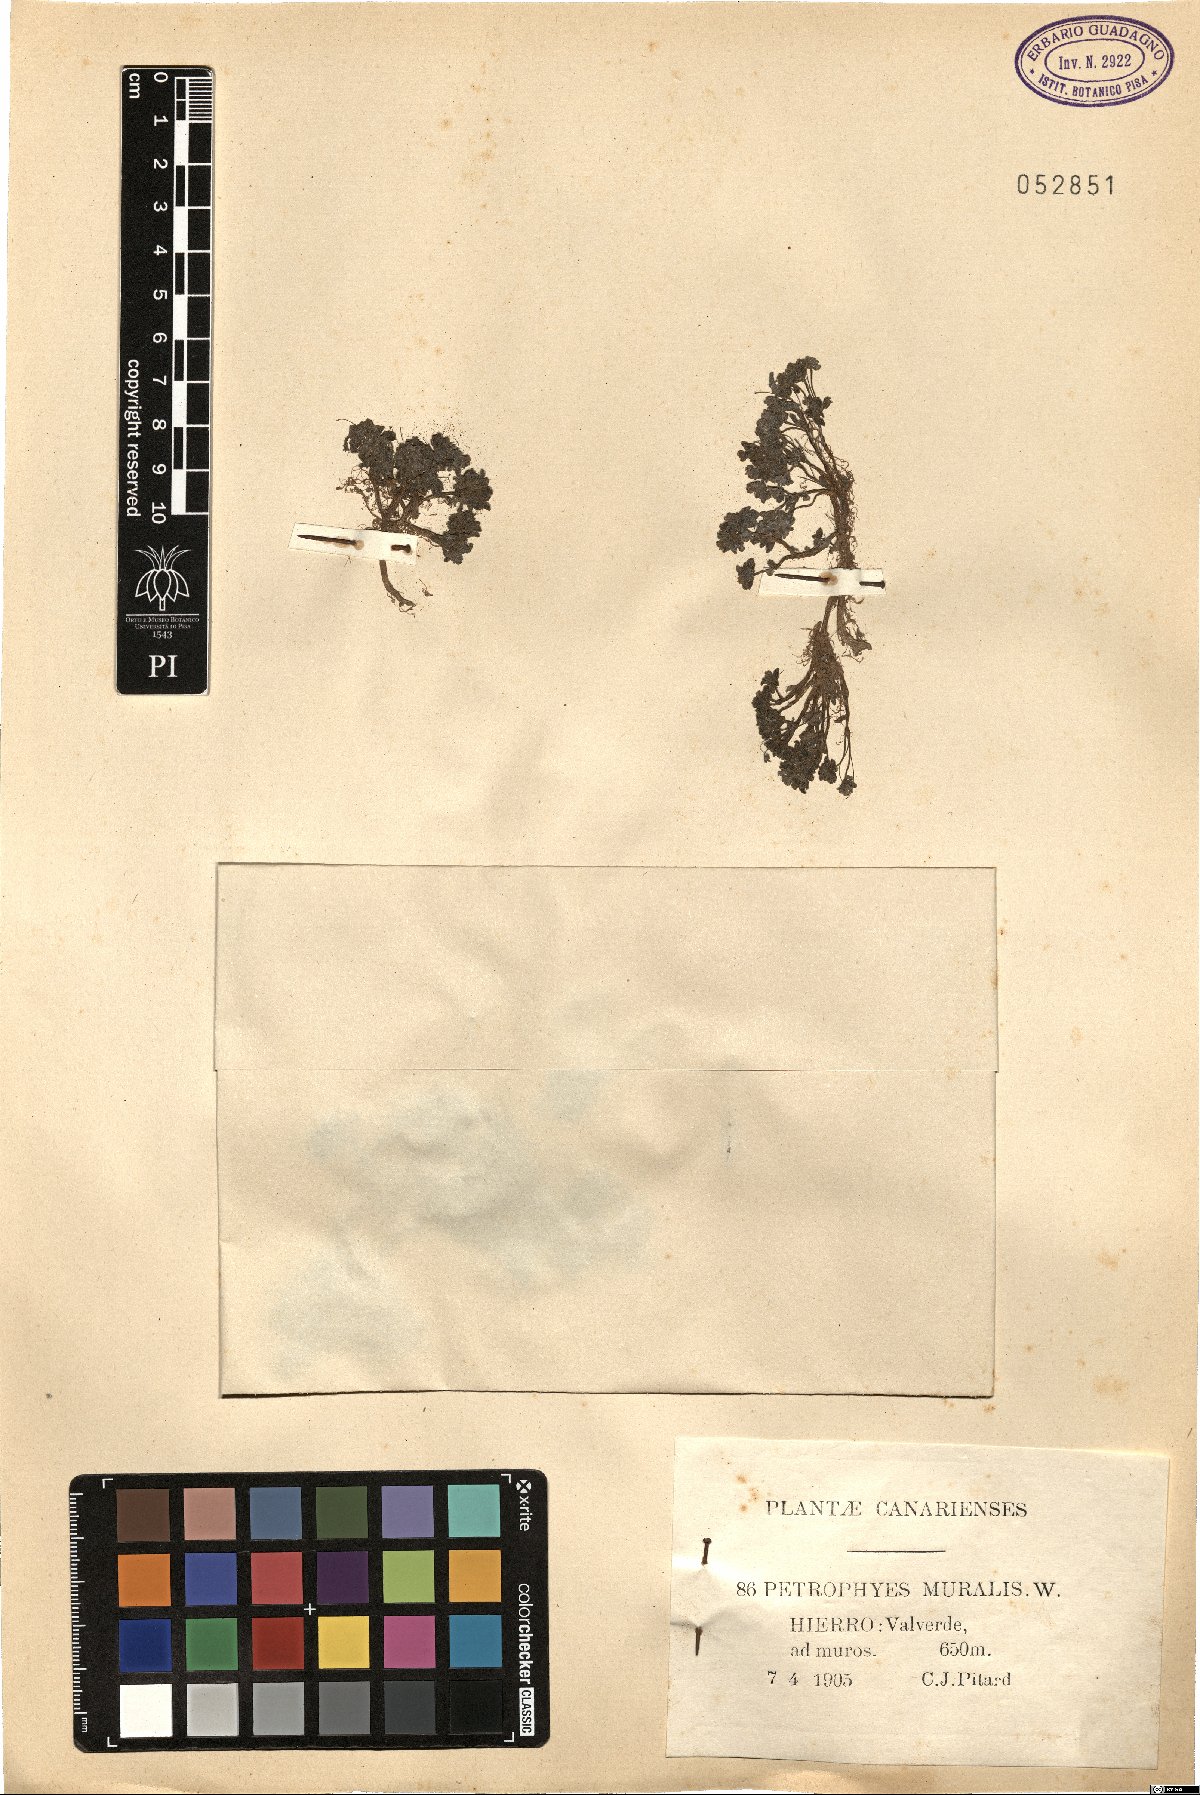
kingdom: Plantae
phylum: Tracheophyta
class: Magnoliopsida
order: Saxifragales
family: Crassulaceae
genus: Monanthes
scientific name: Monanthes muralis
